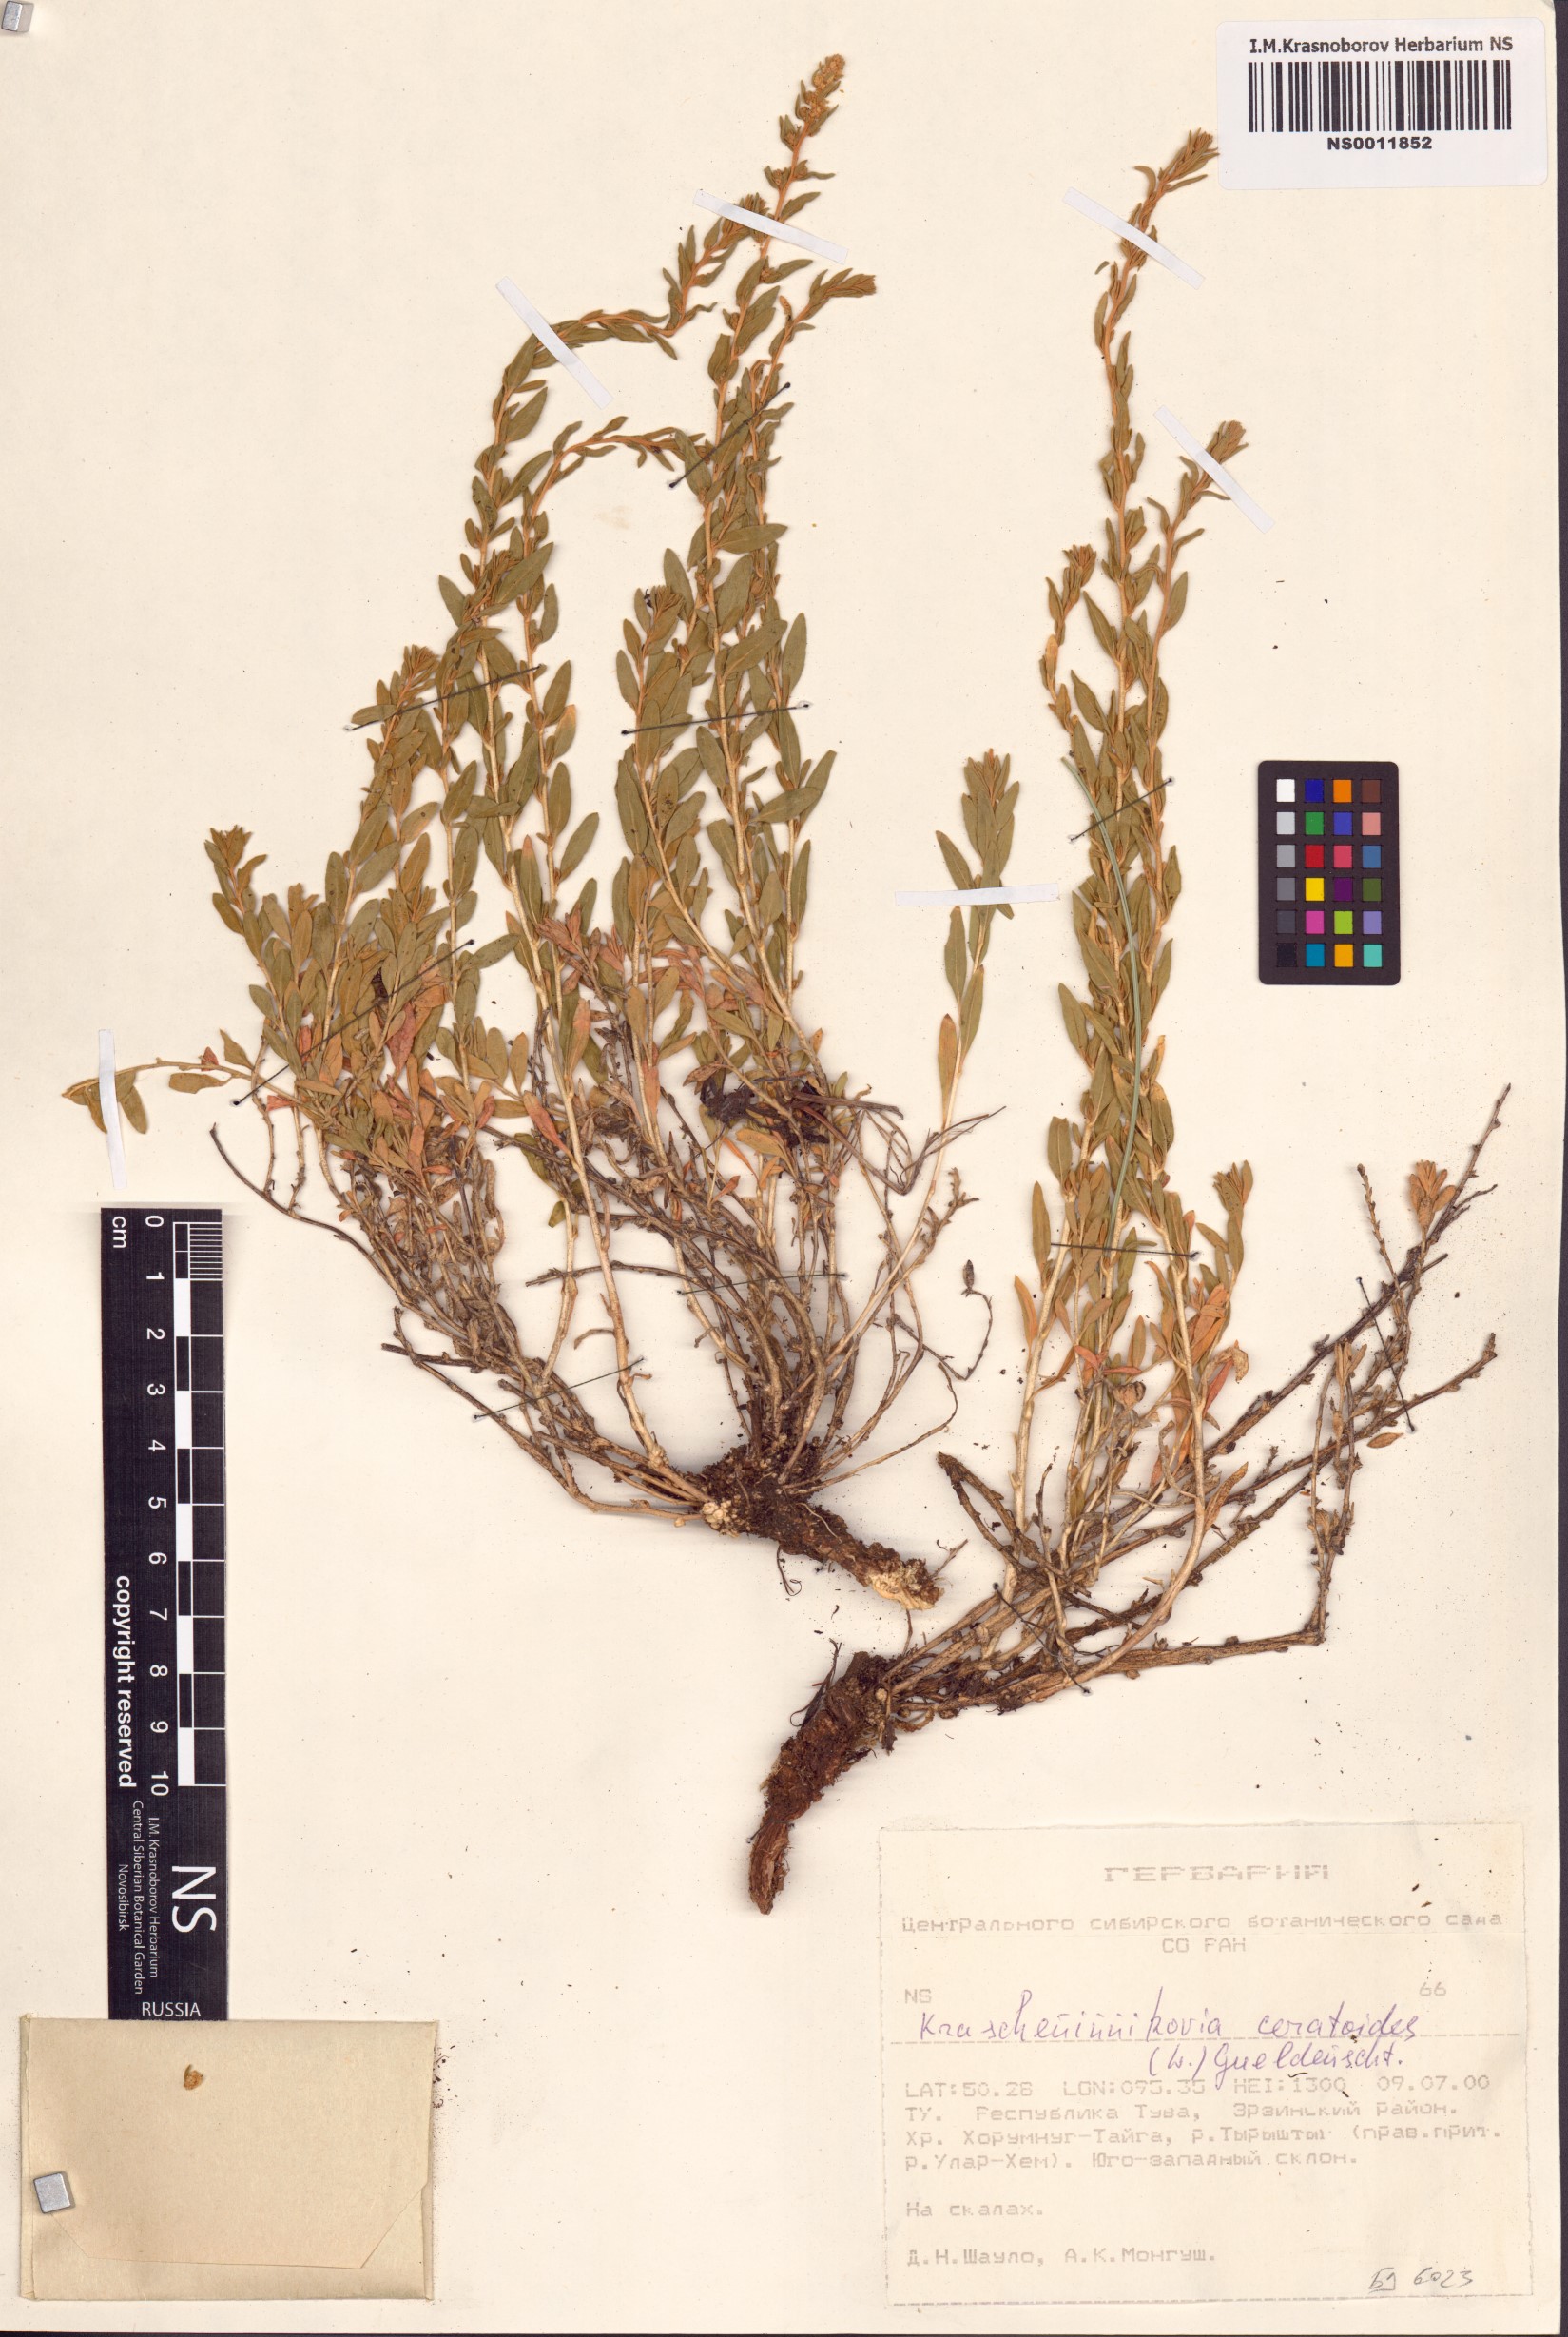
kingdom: Plantae
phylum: Tracheophyta
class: Magnoliopsida
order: Caryophyllales
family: Amaranthaceae
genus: Krascheninnikovia
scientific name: Krascheninnikovia ceratoides
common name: Pamirian winterfat
